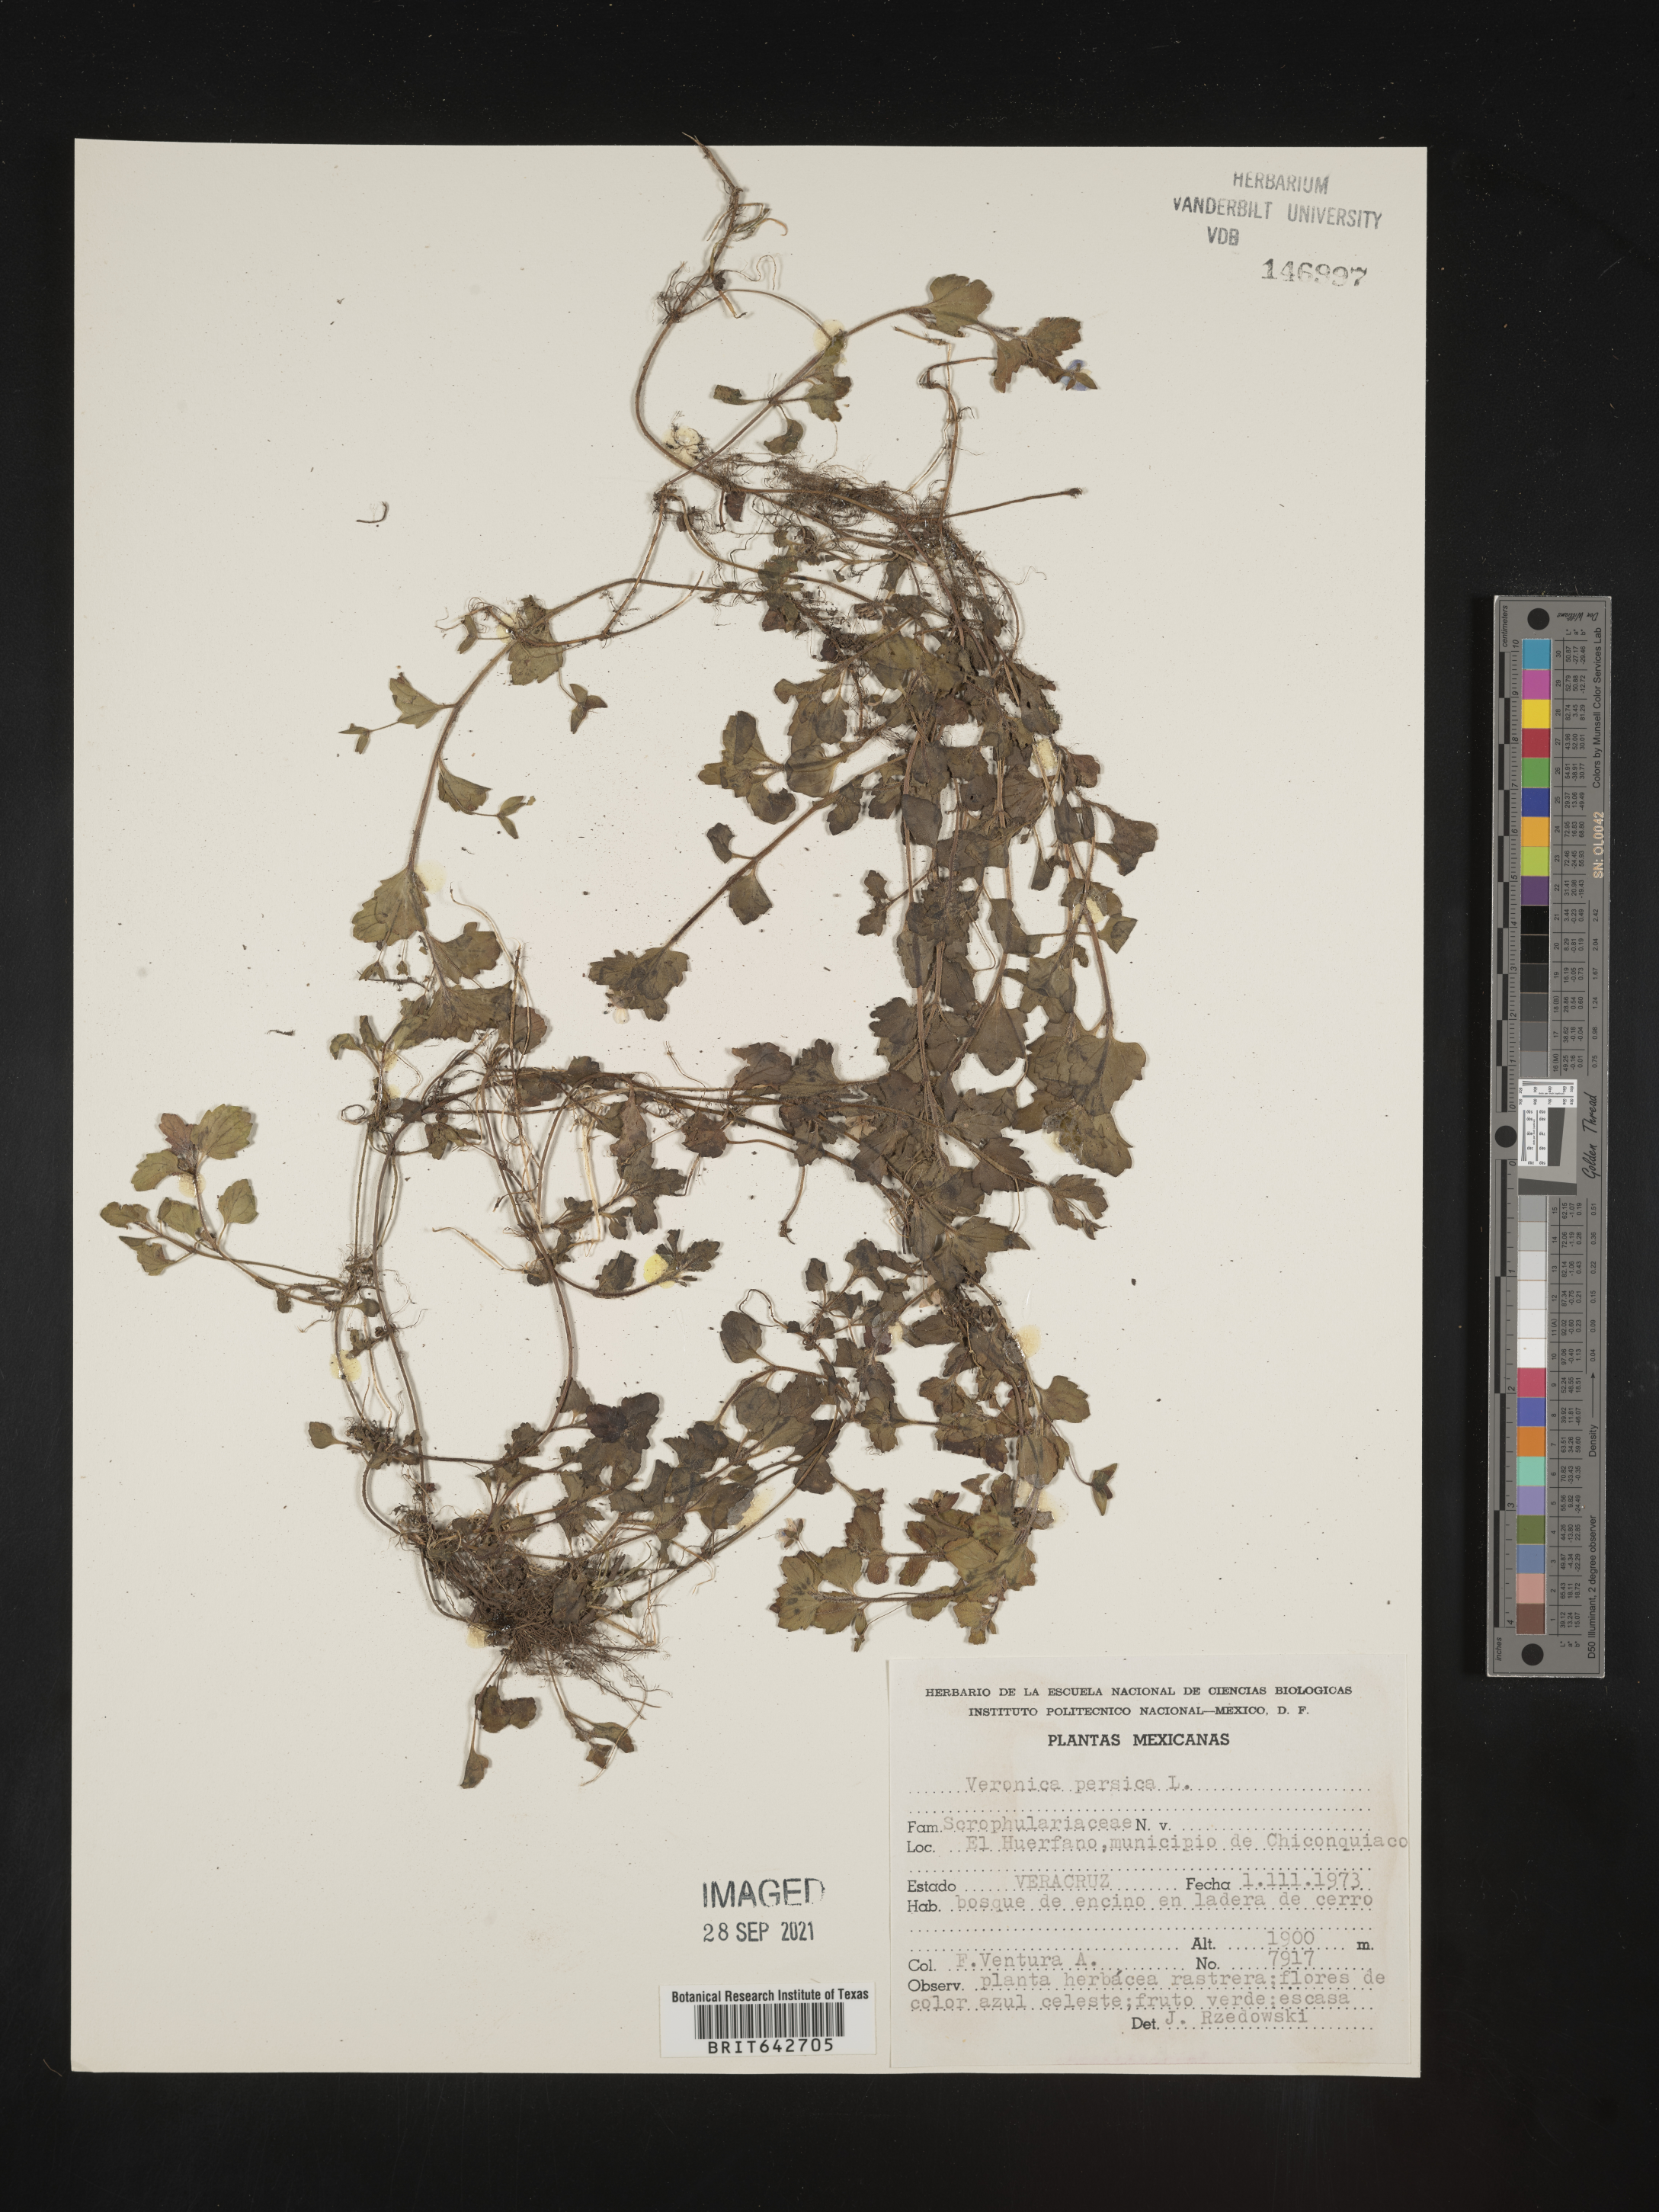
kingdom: Plantae
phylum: Tracheophyta
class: Magnoliopsida
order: Lamiales
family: Plantaginaceae
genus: Veronica
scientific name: Veronica
